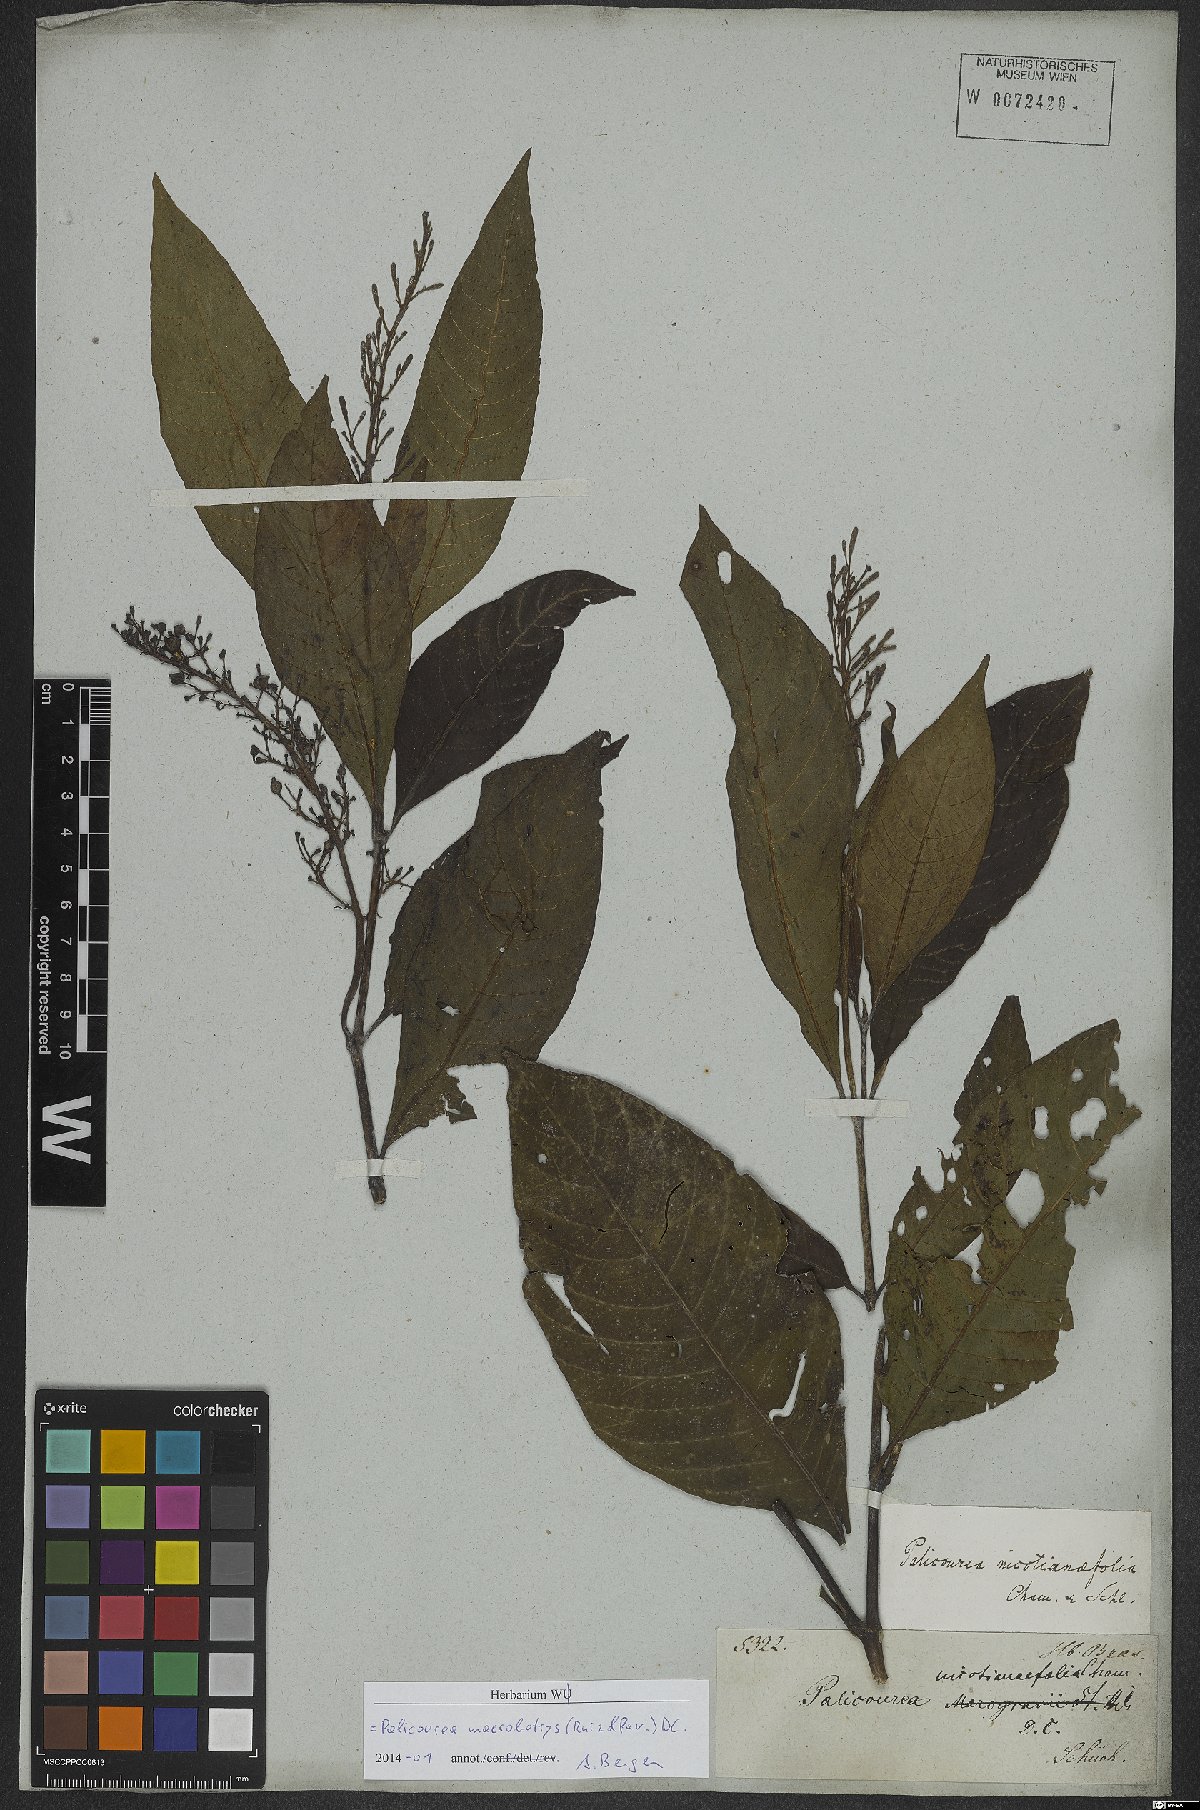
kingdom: Plantae
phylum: Tracheophyta
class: Magnoliopsida
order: Gentianales
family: Rubiaceae
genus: Palicourea
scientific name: Palicourea macrobotrys
